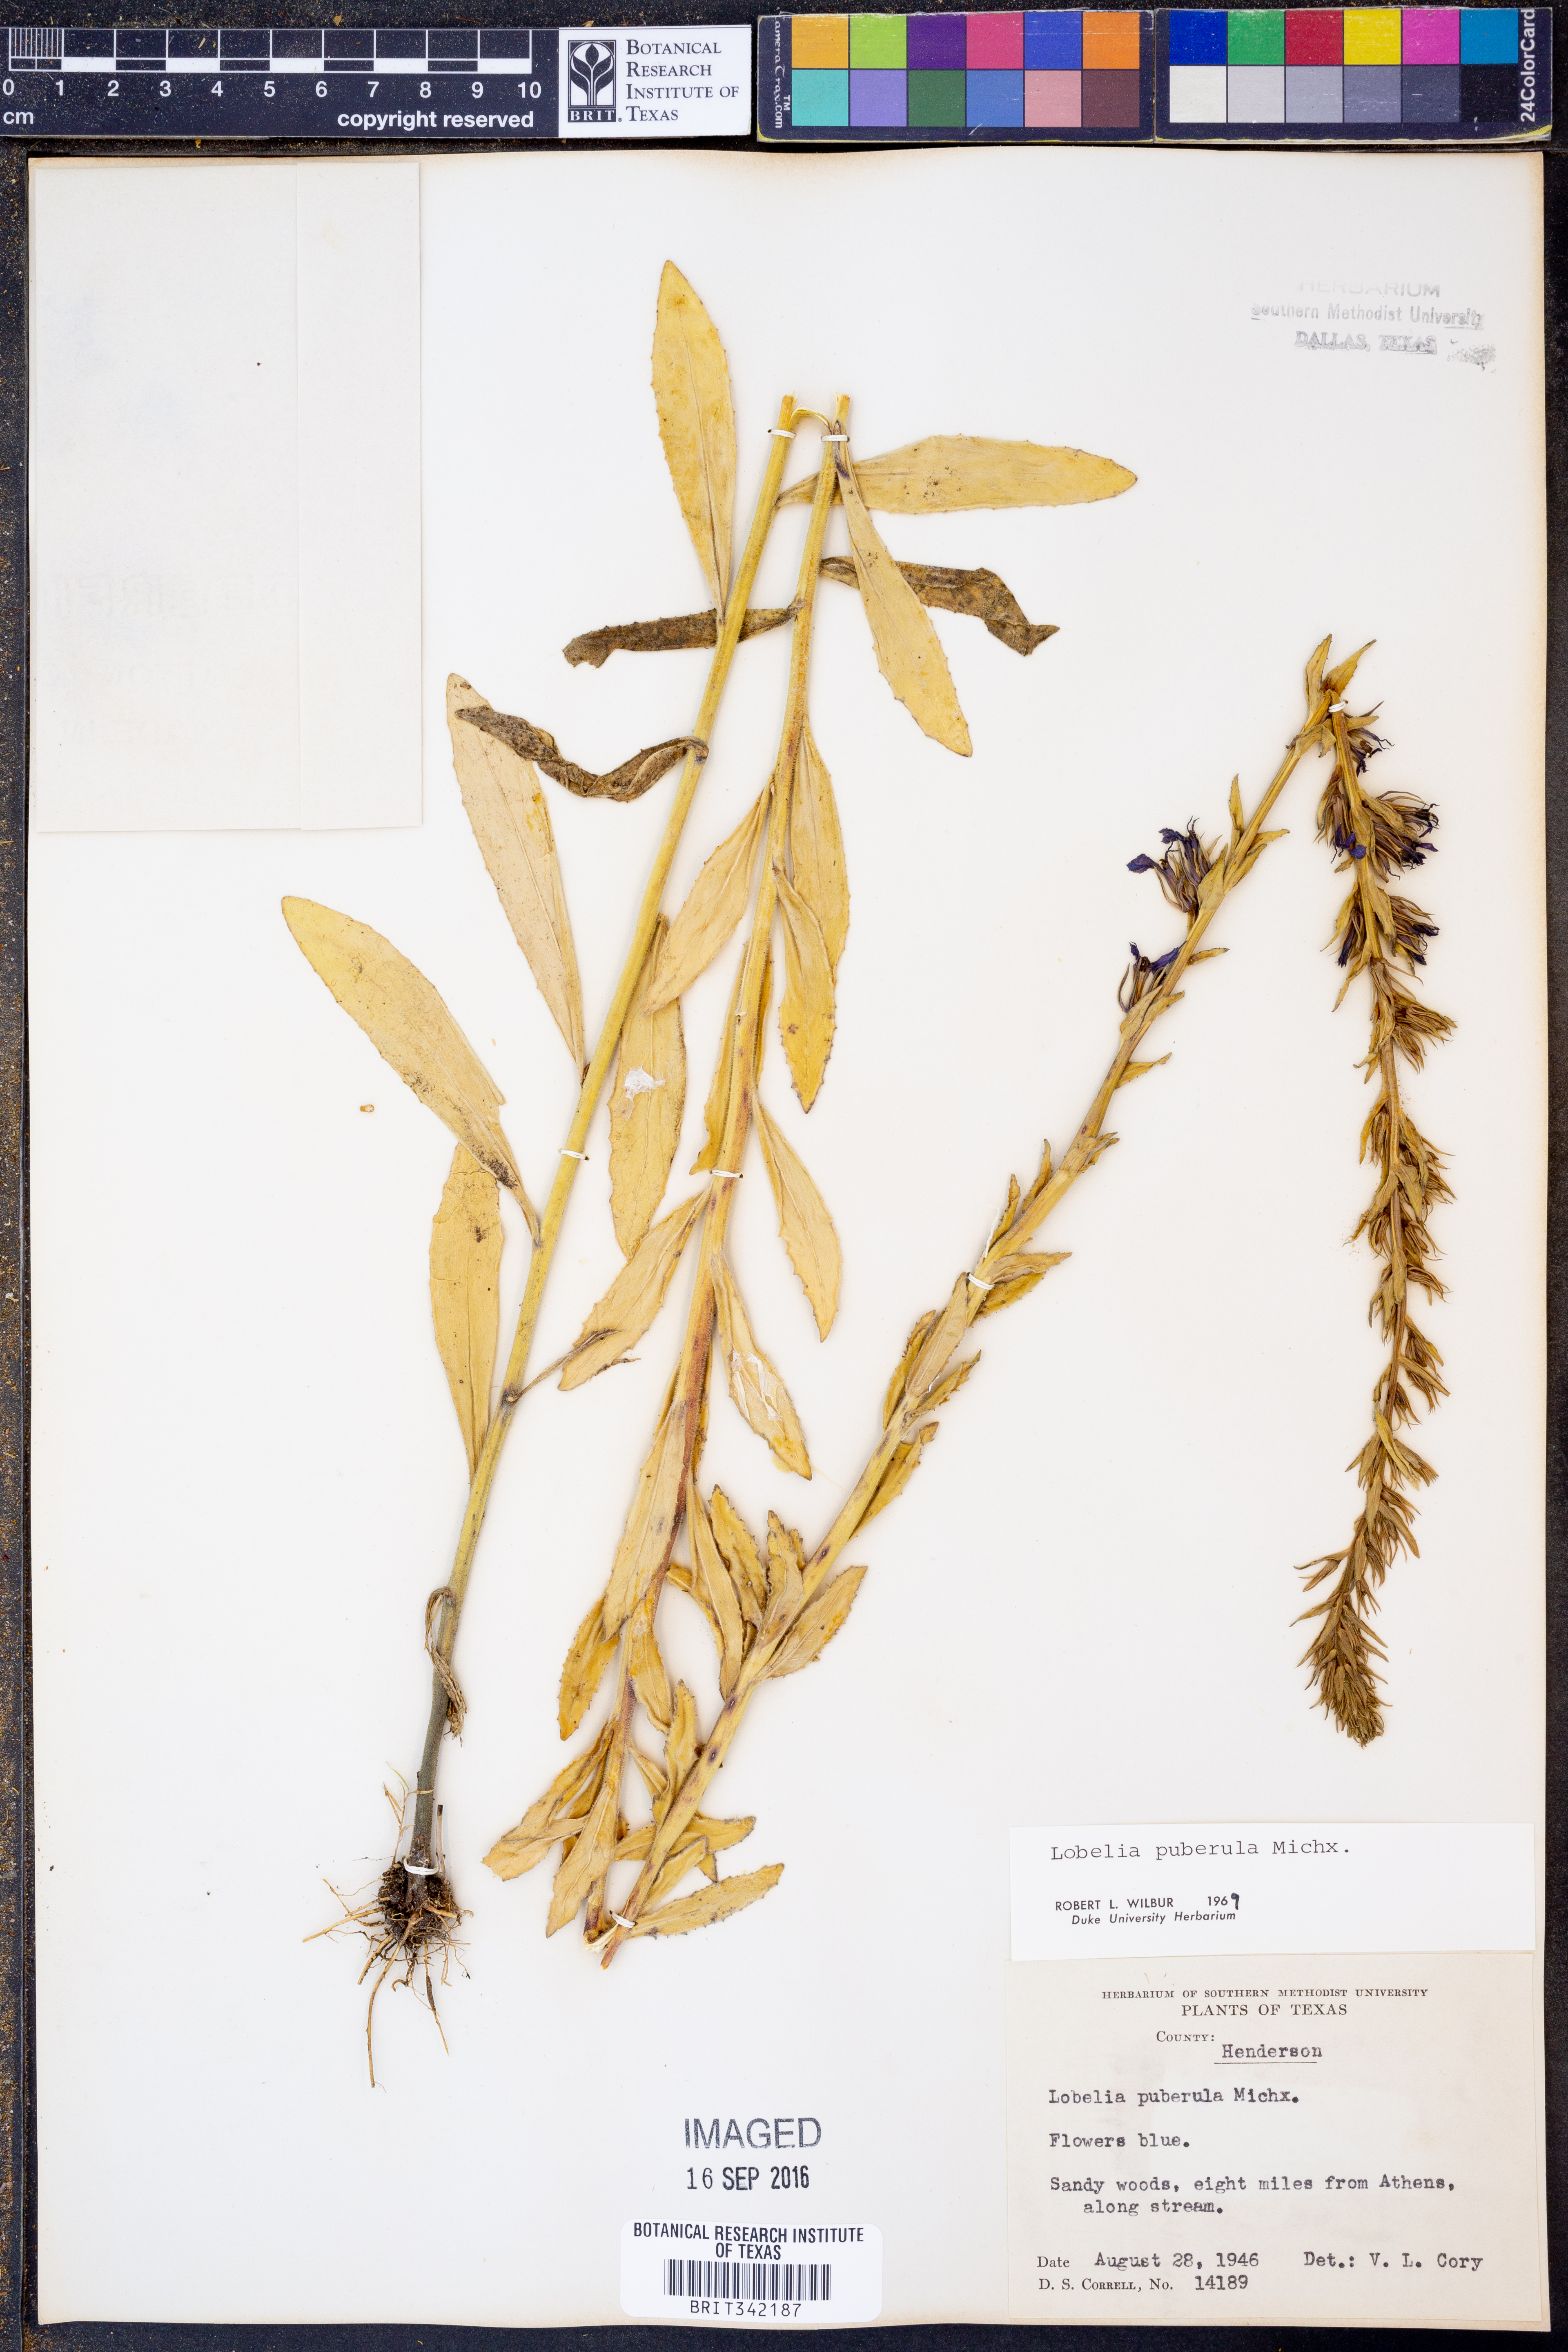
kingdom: Plantae
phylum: Tracheophyta
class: Magnoliopsida
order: Asterales
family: Campanulaceae
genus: Lobelia
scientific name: Lobelia puberula
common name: Purple dewdrop
